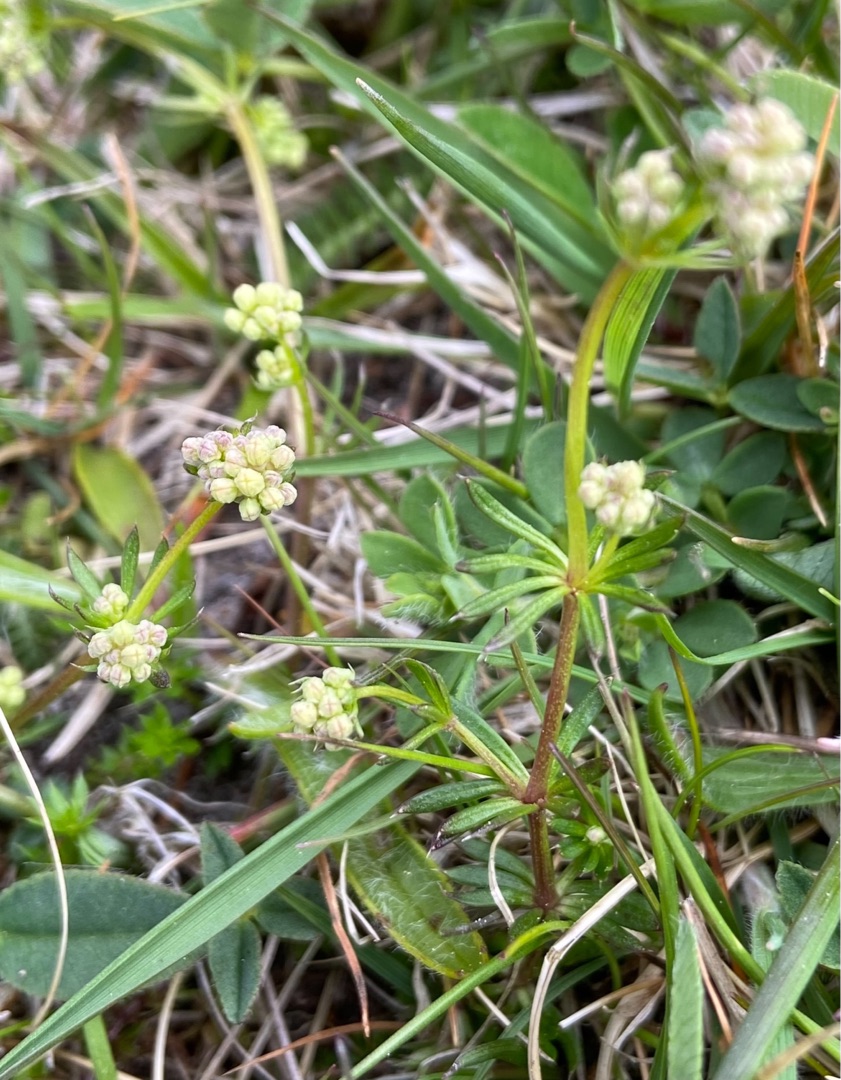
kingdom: Plantae
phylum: Tracheophyta
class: Magnoliopsida
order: Gentianales
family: Rubiaceae
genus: Galium
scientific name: Galium mollugo
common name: Hvid snerre
